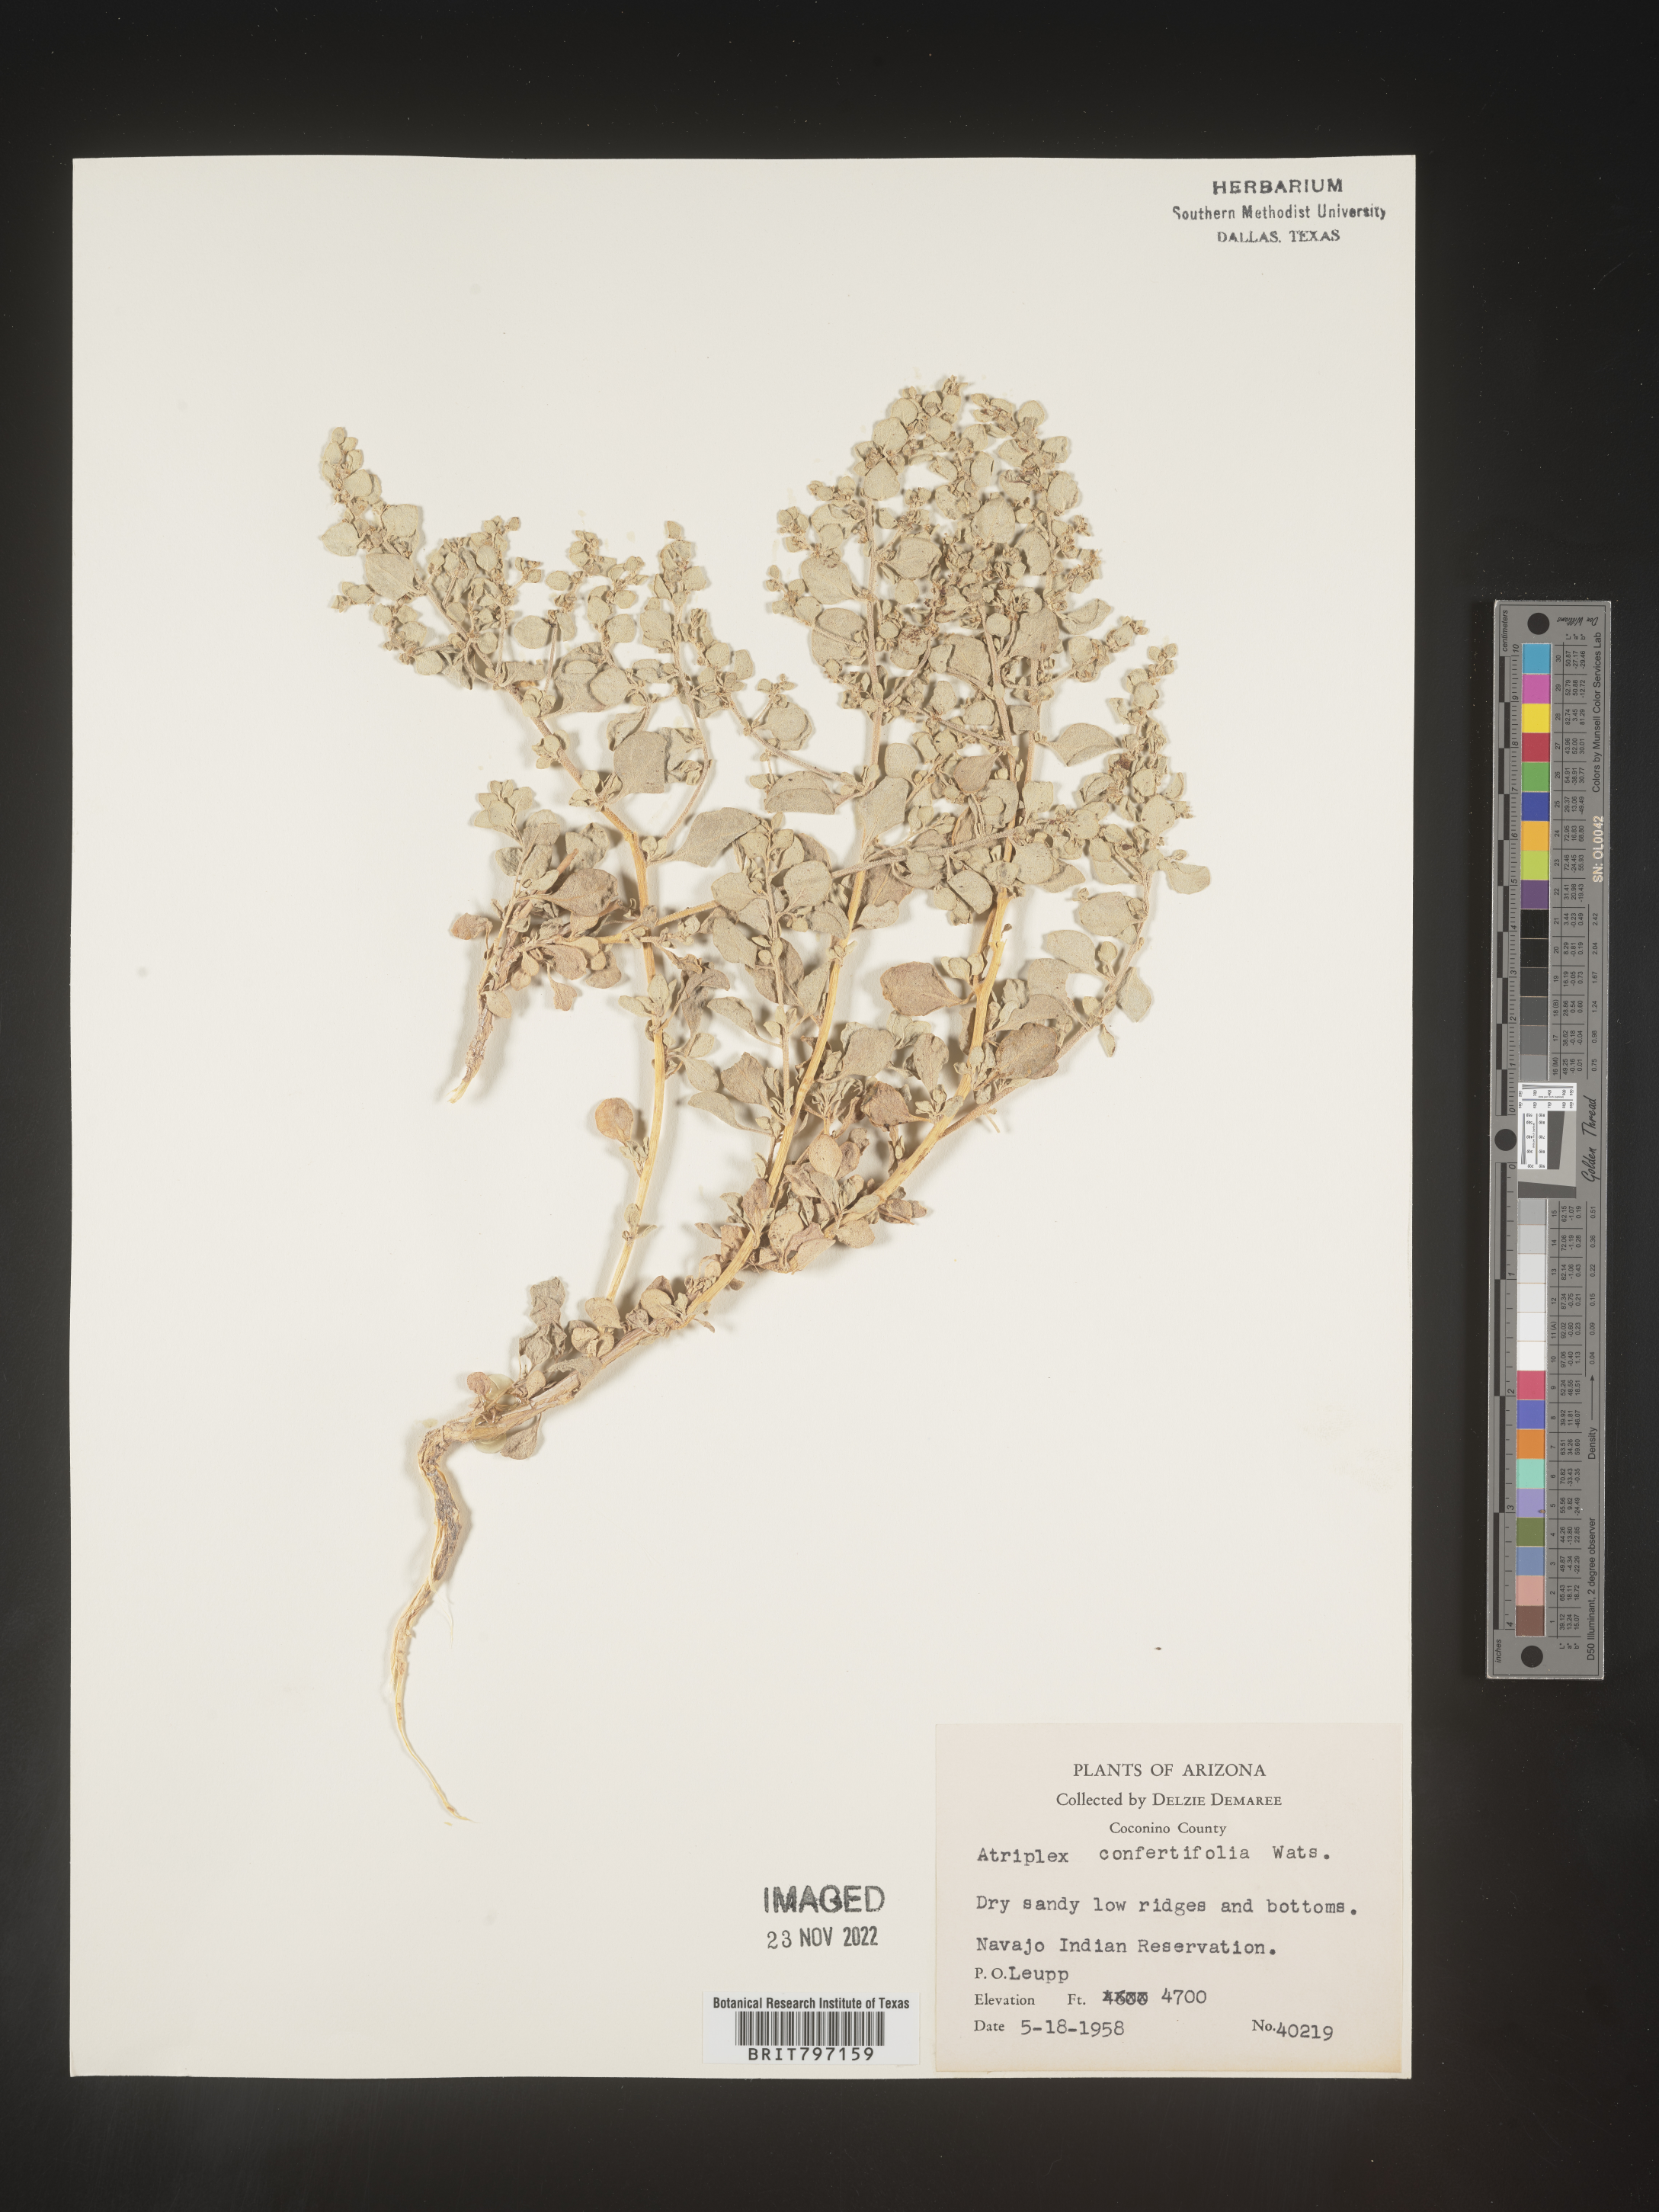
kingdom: Plantae
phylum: Tracheophyta
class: Magnoliopsida
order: Caryophyllales
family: Amaranthaceae
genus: Atriplex
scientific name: Atriplex confertifolia
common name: Shadscale
